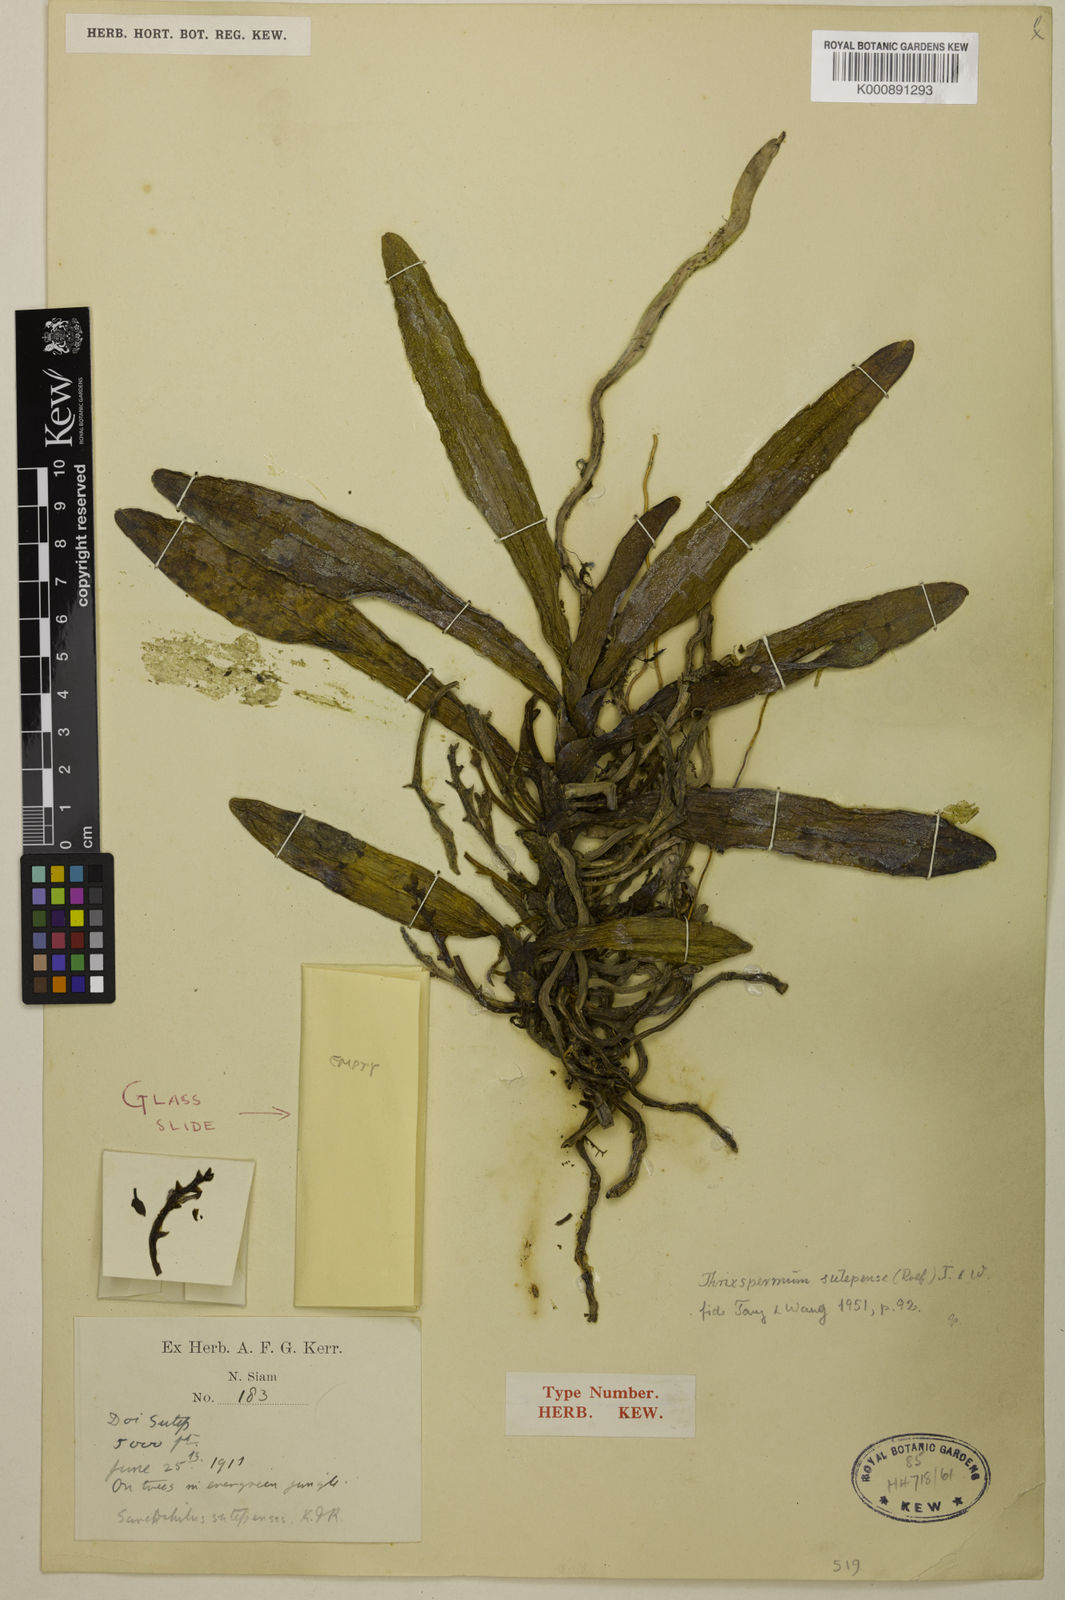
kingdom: Plantae
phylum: Tracheophyta
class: Liliopsida
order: Asparagales
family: Orchidaceae
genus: Thrixspermum
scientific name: Thrixspermum sutepense
